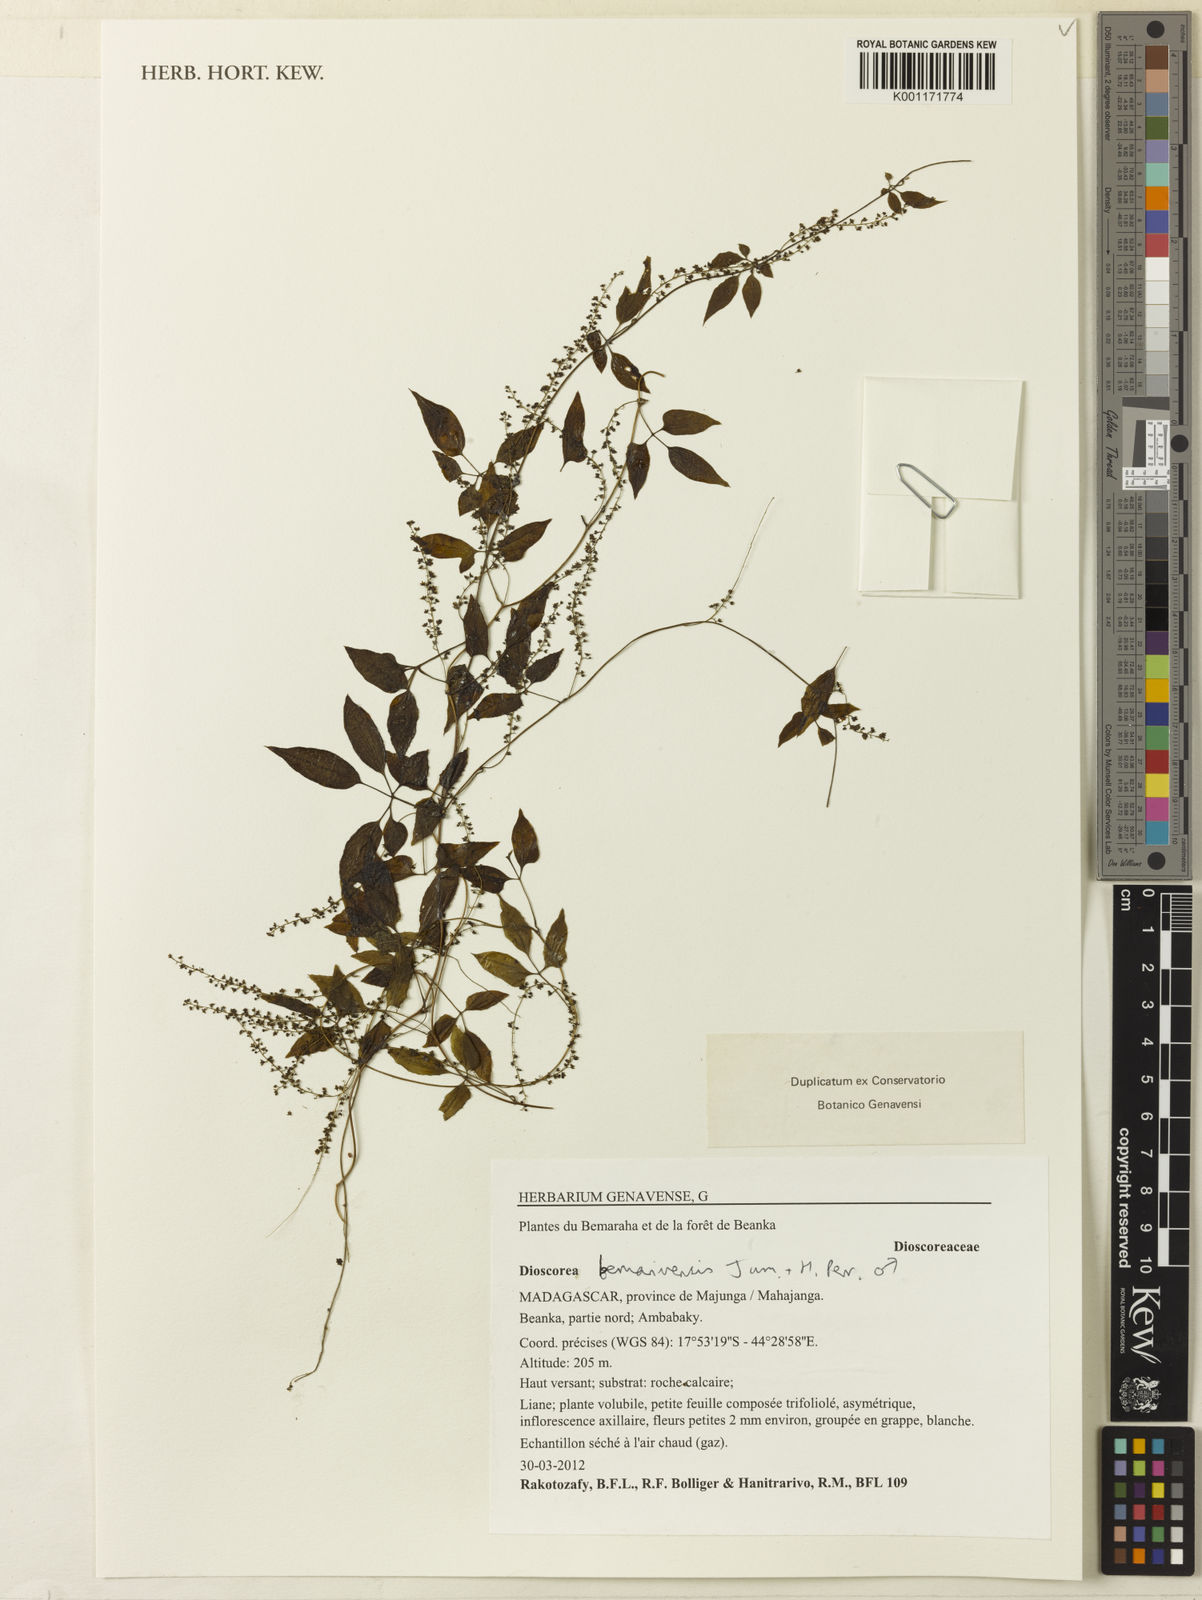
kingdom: Plantae
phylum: Tracheophyta
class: Liliopsida
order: Dioscoreales
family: Dioscoreaceae
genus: Dioscorea
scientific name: Dioscorea bemarivensis
